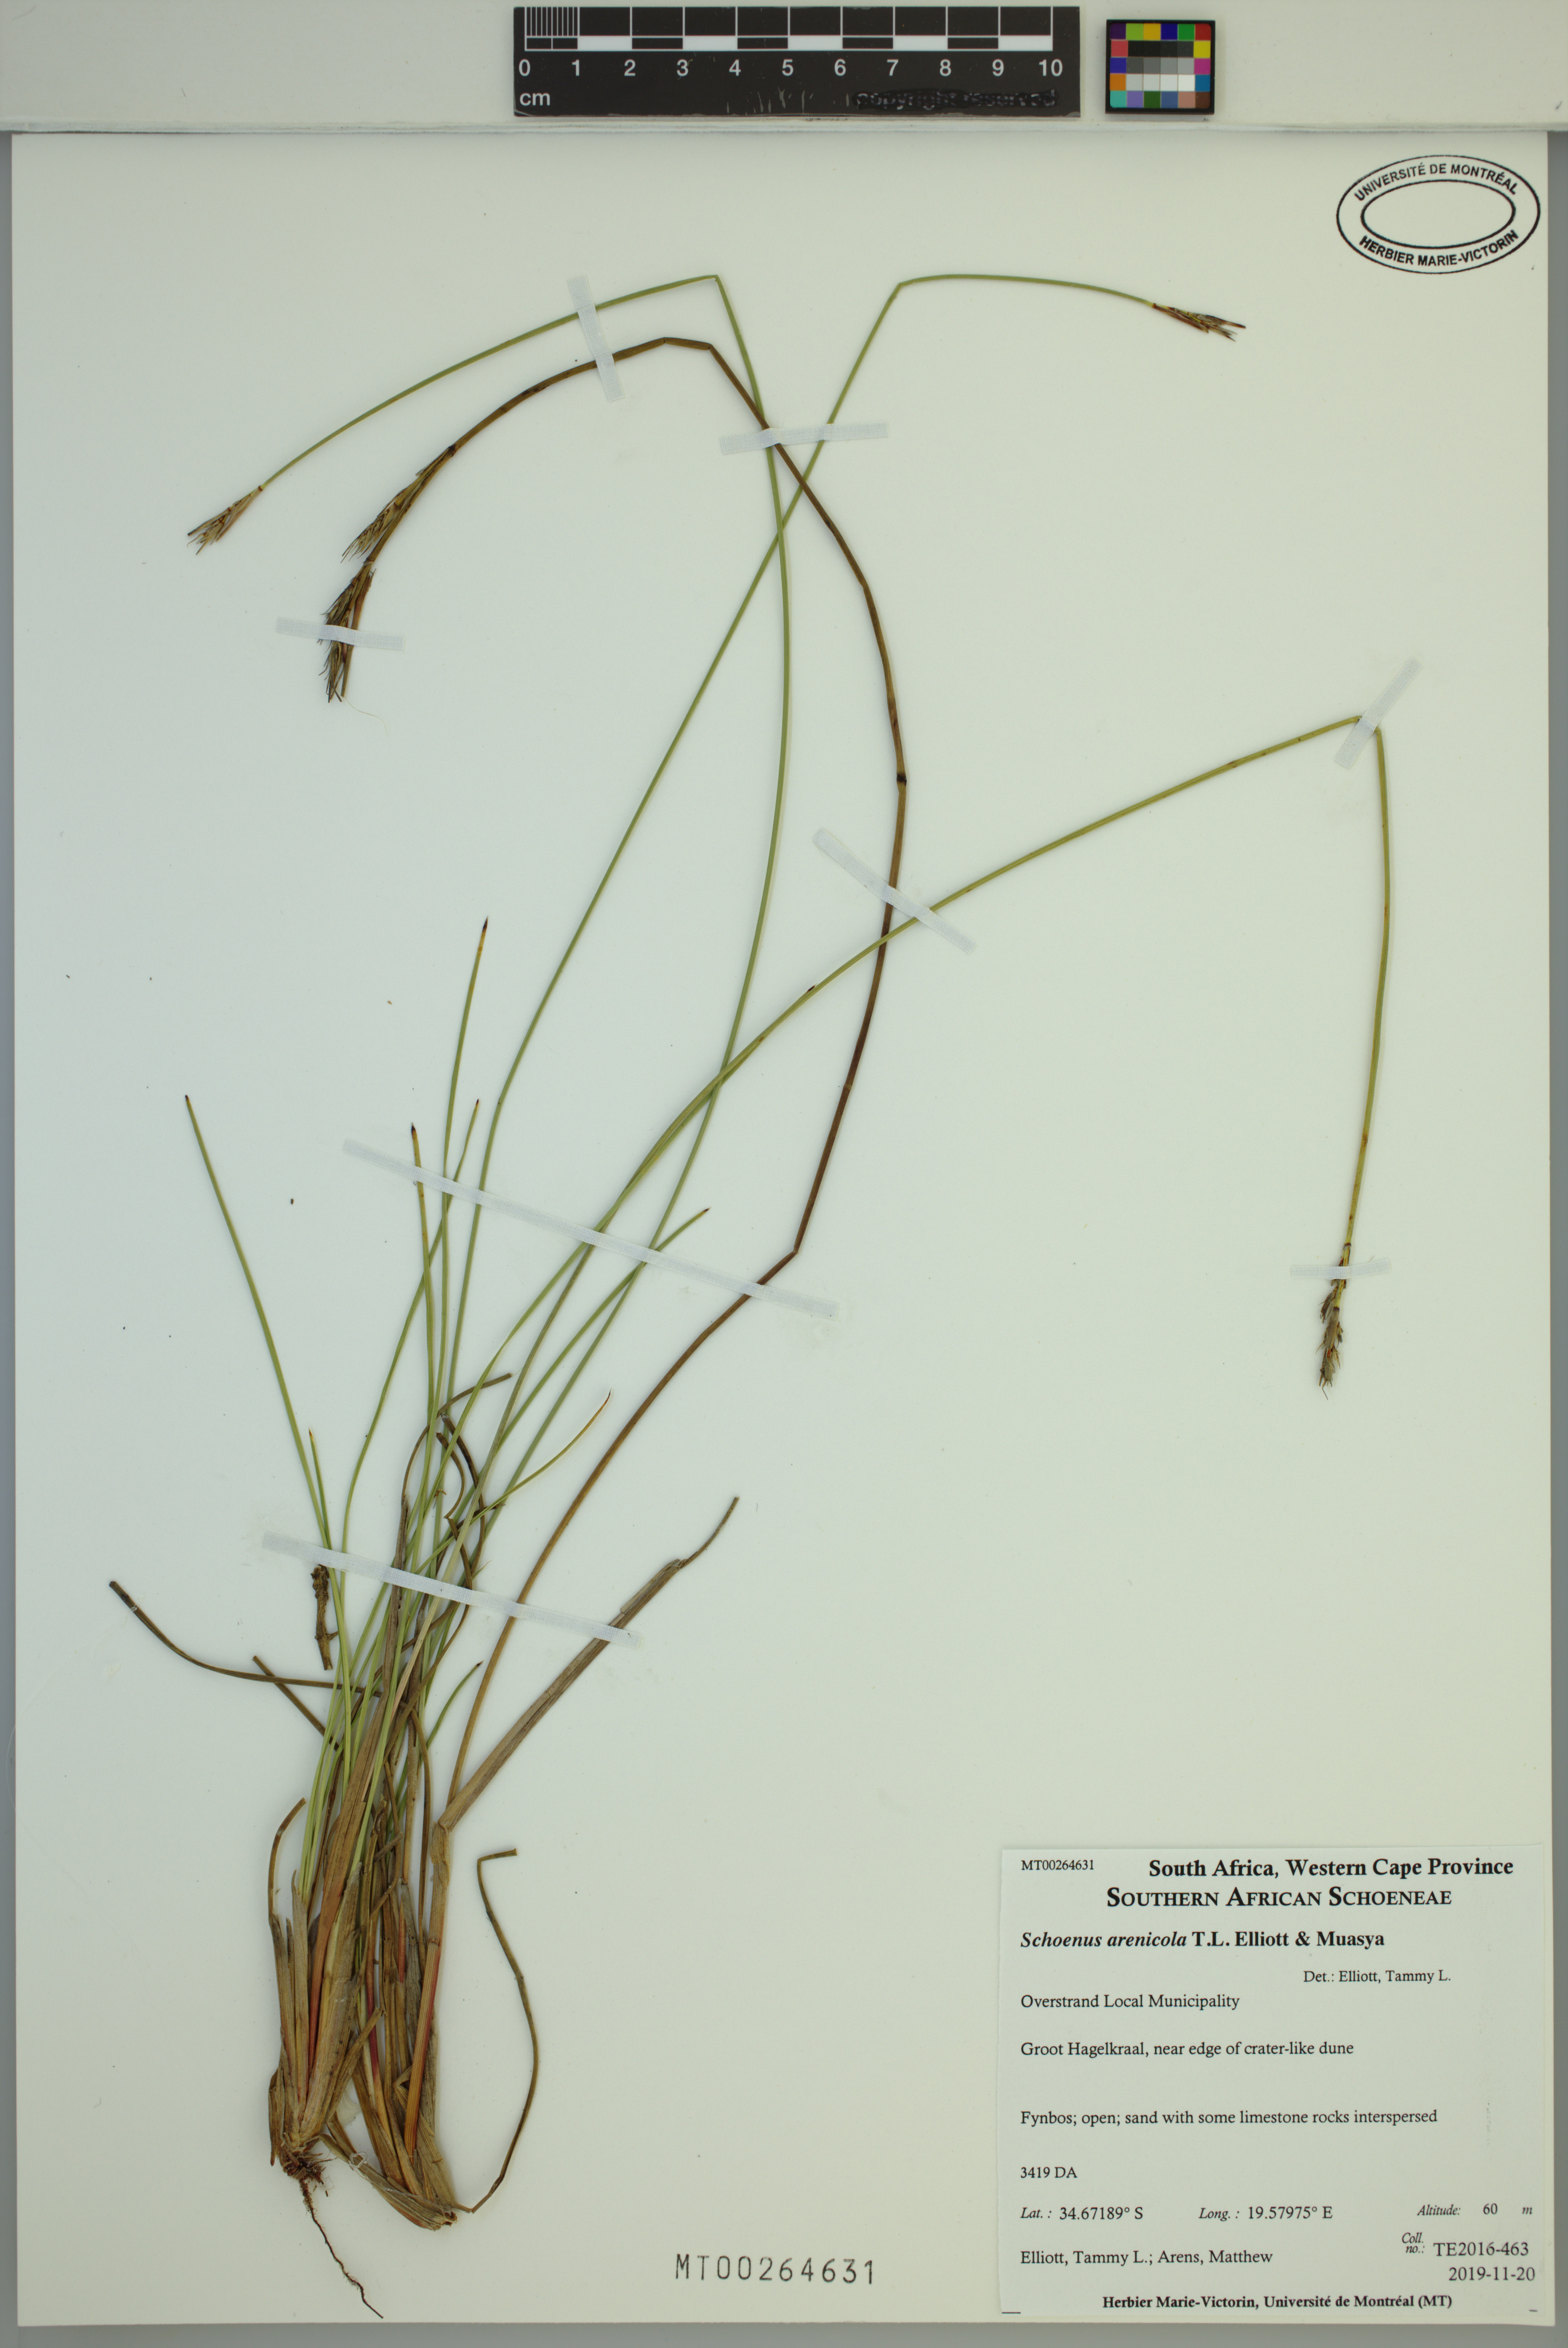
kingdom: Plantae
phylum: Tracheophyta
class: Liliopsida
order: Poales
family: Cyperaceae
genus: Schoenus
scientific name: Schoenus arenicola
